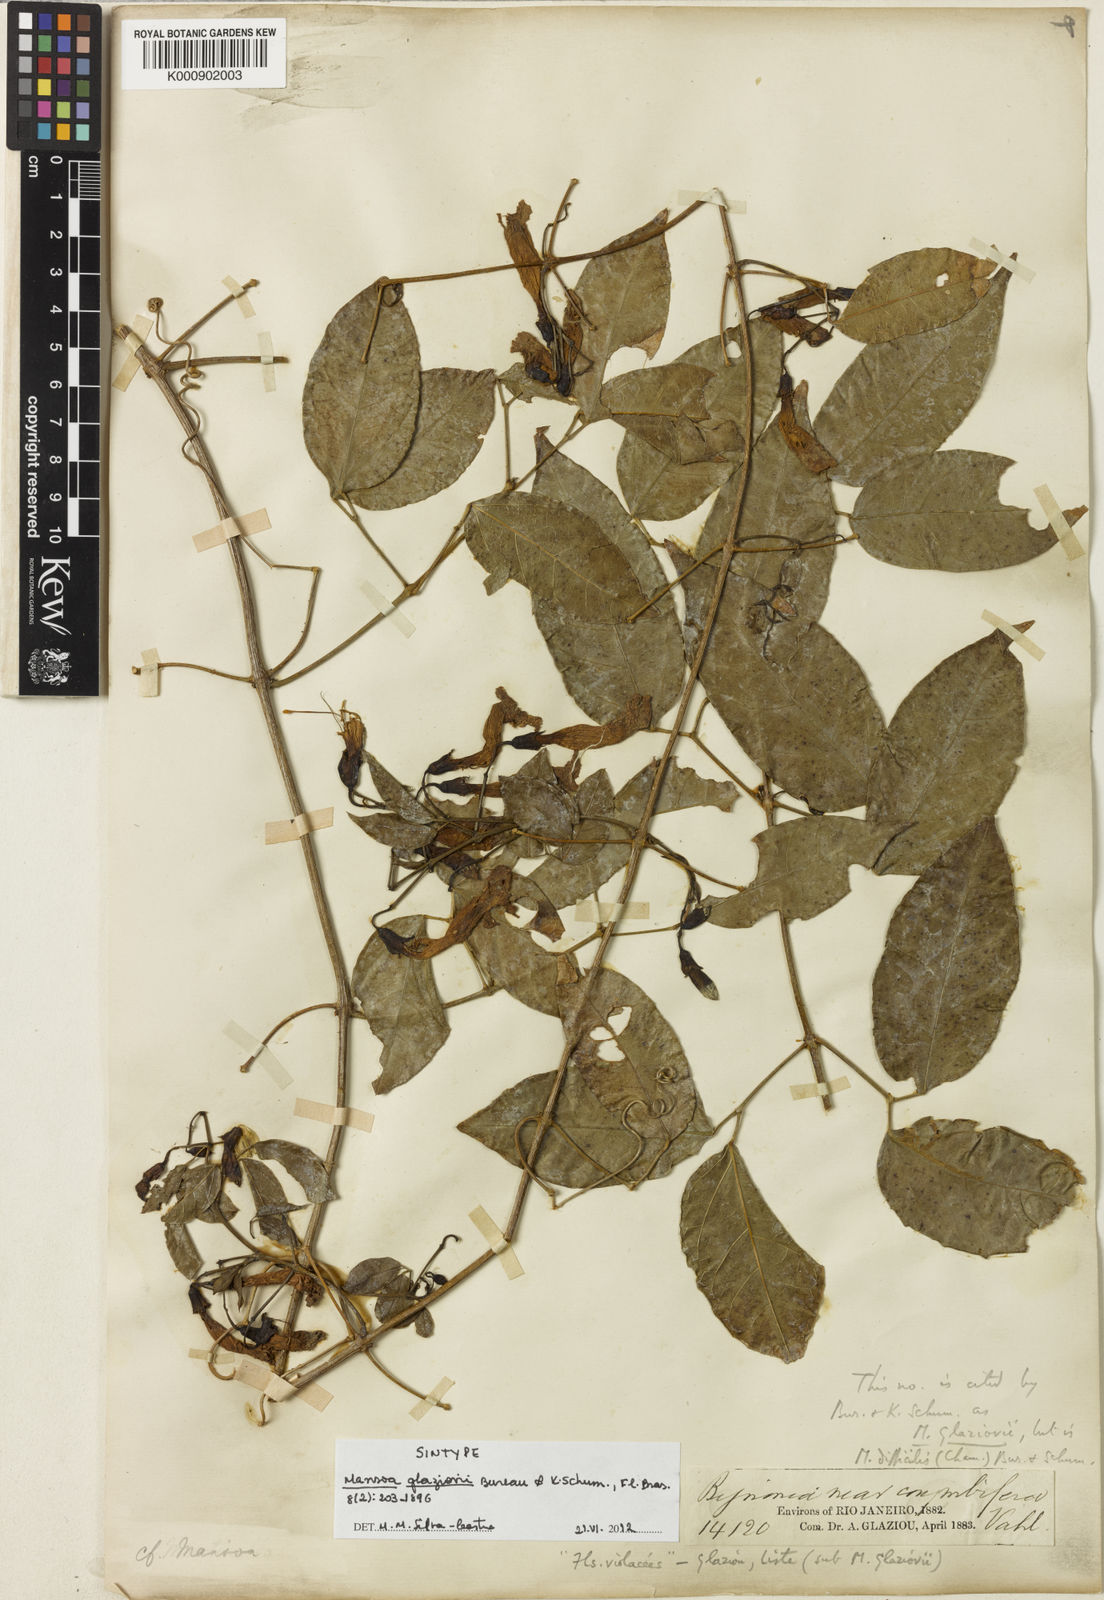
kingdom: Plantae
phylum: Tracheophyta
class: Magnoliopsida
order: Lamiales
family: Bignoniaceae
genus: Mansoa
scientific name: Mansoa glaziovii
